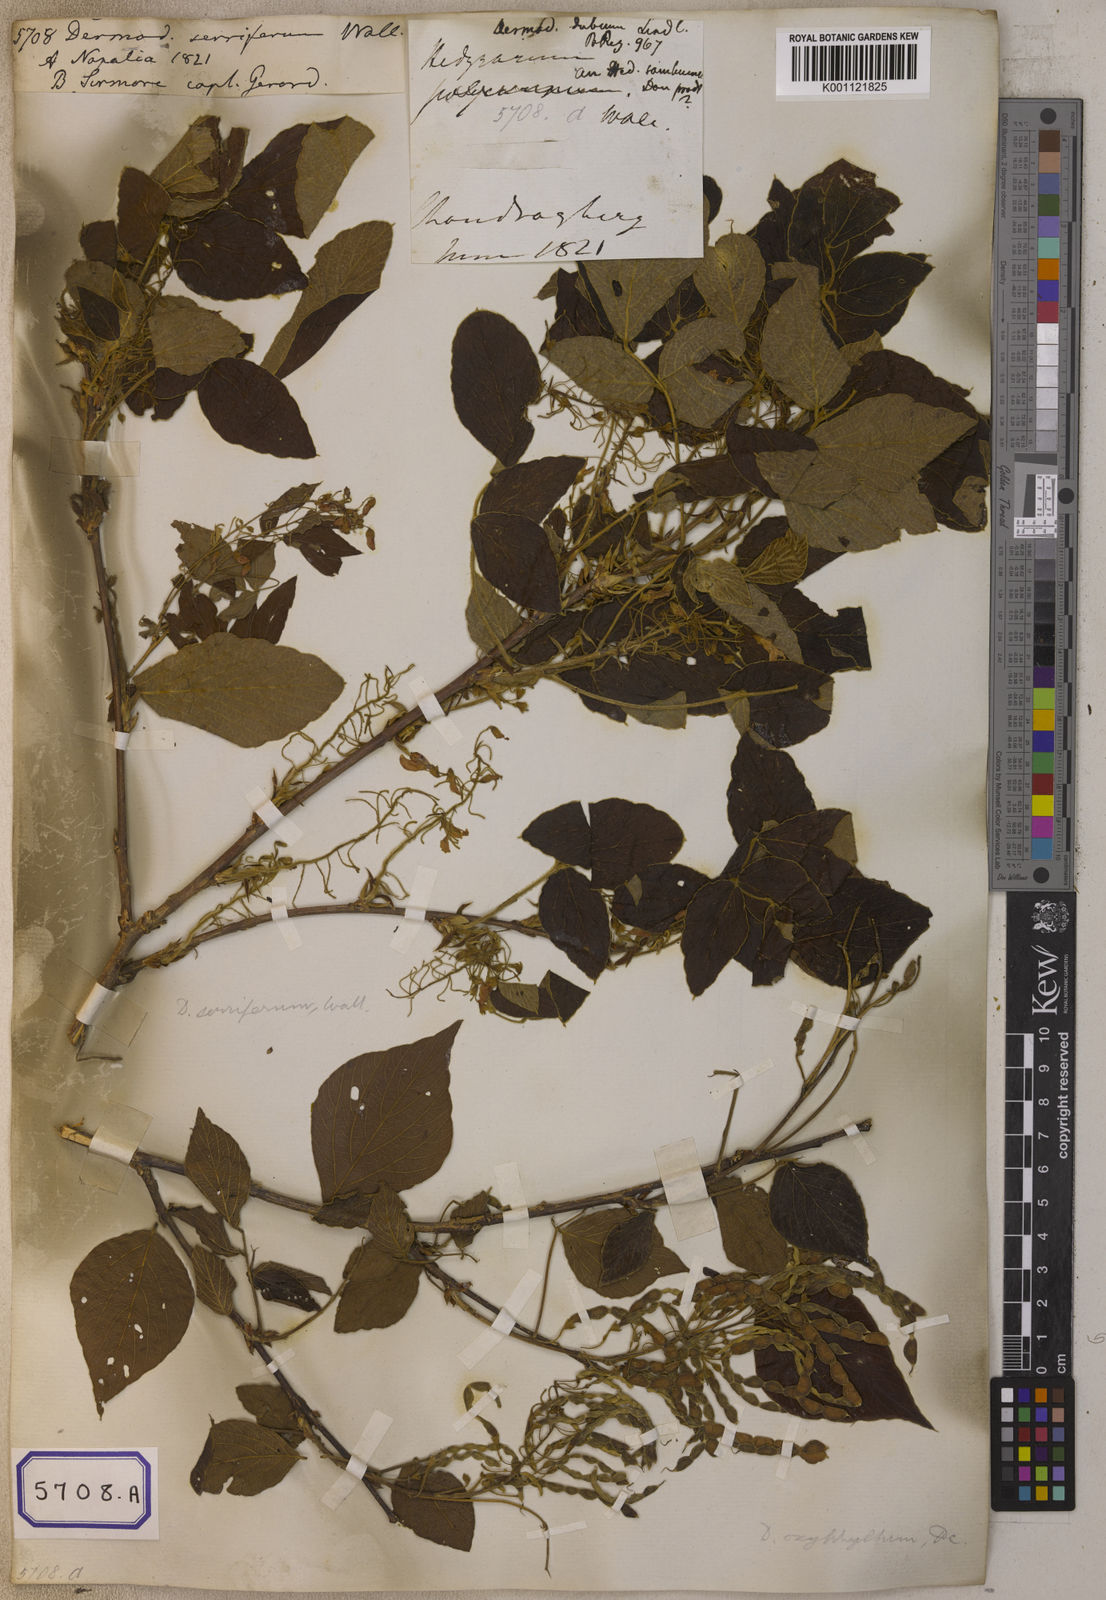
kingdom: Plantae
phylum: Tracheophyta
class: Magnoliopsida
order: Fabales
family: Fabaceae
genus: Desmodium
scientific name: Desmodium
